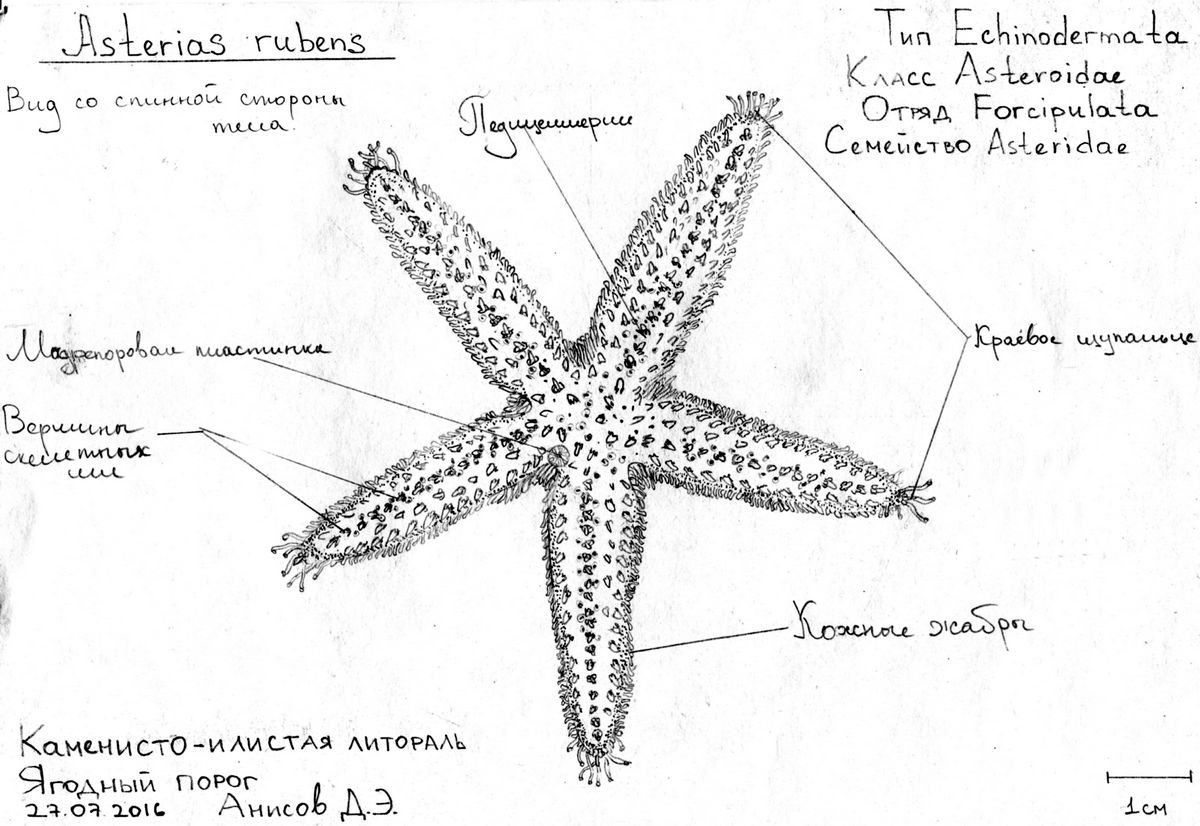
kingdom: Animalia
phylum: Echinodermata
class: Asteroidea
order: Forcipulatida
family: Asteriidae
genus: Asterias
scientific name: Asterias rubens
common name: Common starfish
